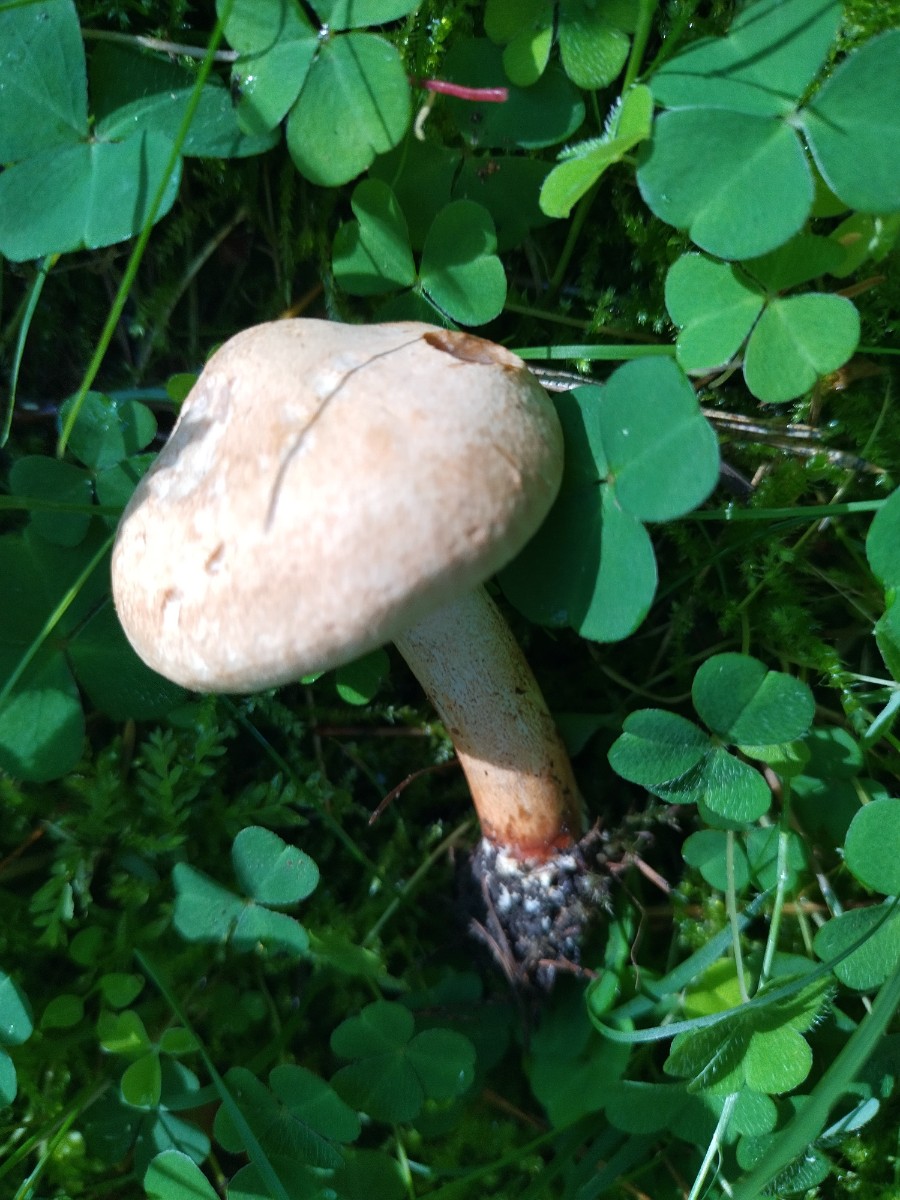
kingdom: Fungi
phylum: Basidiomycota
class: Agaricomycetes
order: Agaricales
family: Tricholomataceae
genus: Tricholoma
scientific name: Tricholoma psammopus
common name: grynstokket ridderhat
